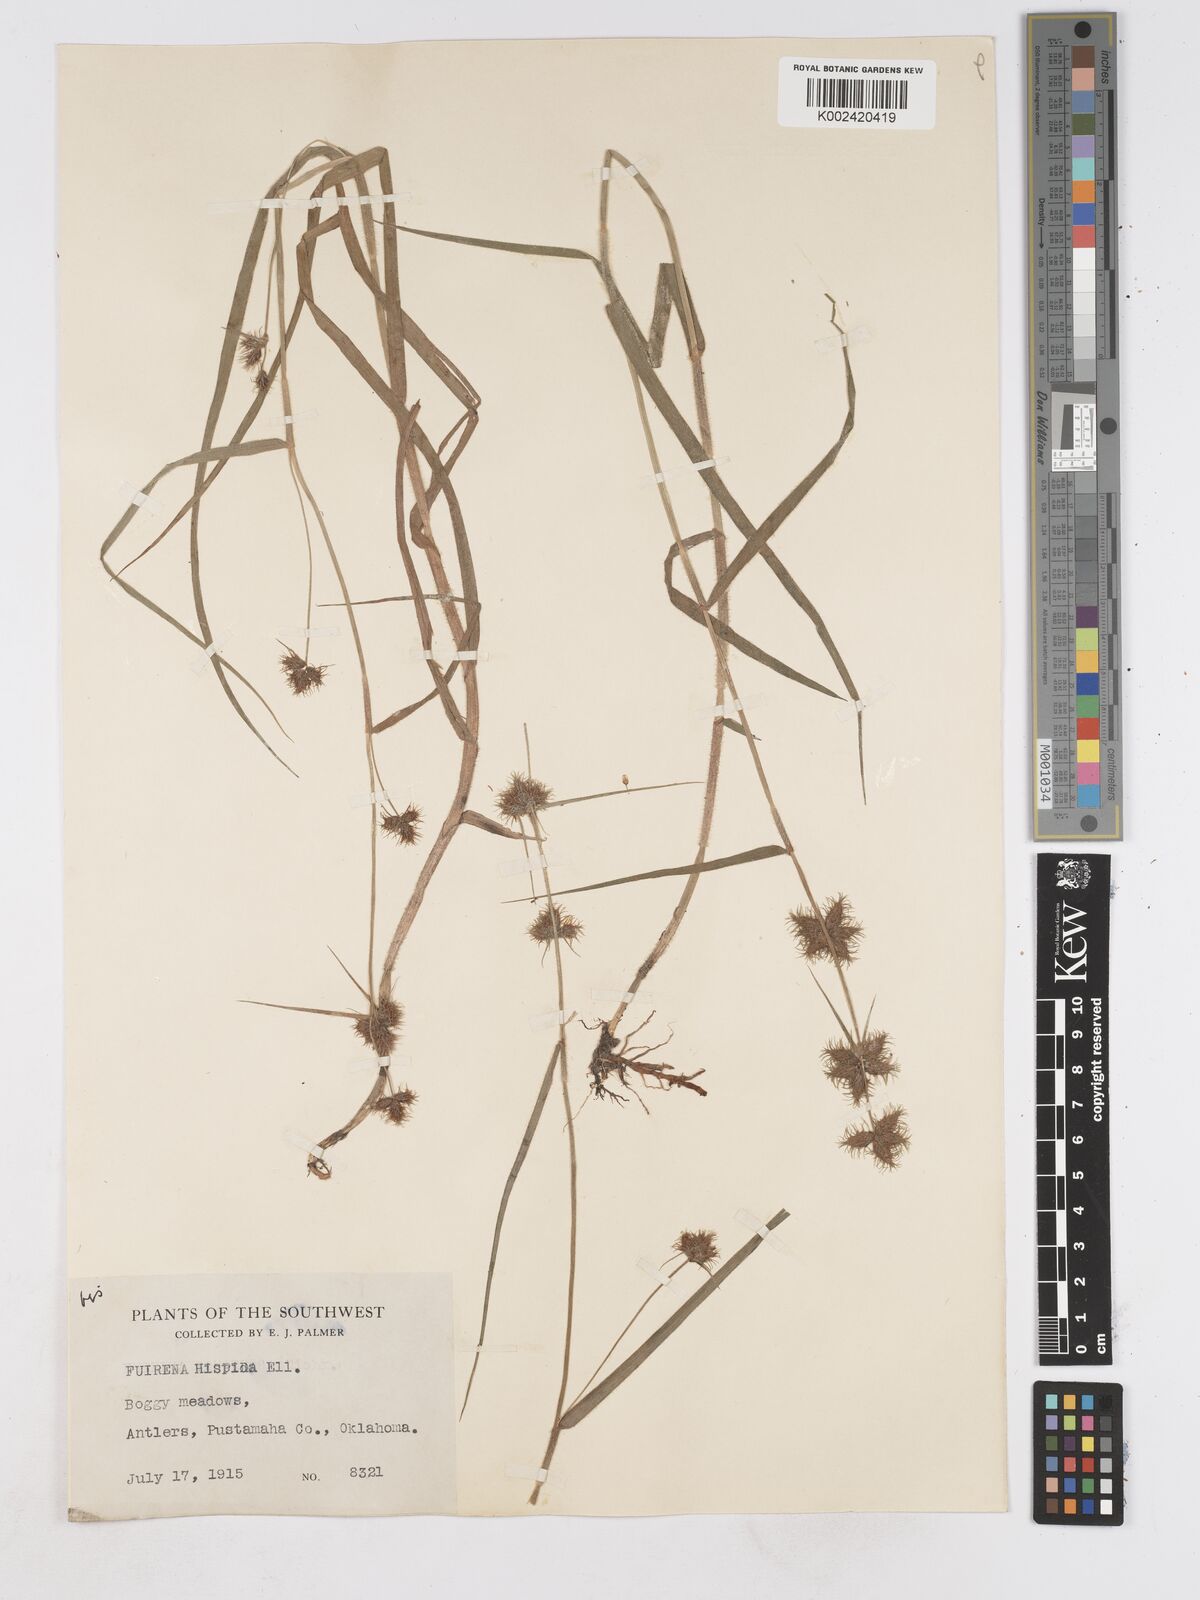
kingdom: Plantae
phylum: Tracheophyta
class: Liliopsida
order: Poales
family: Cyperaceae
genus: Fuirena
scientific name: Fuirena squarrosa
